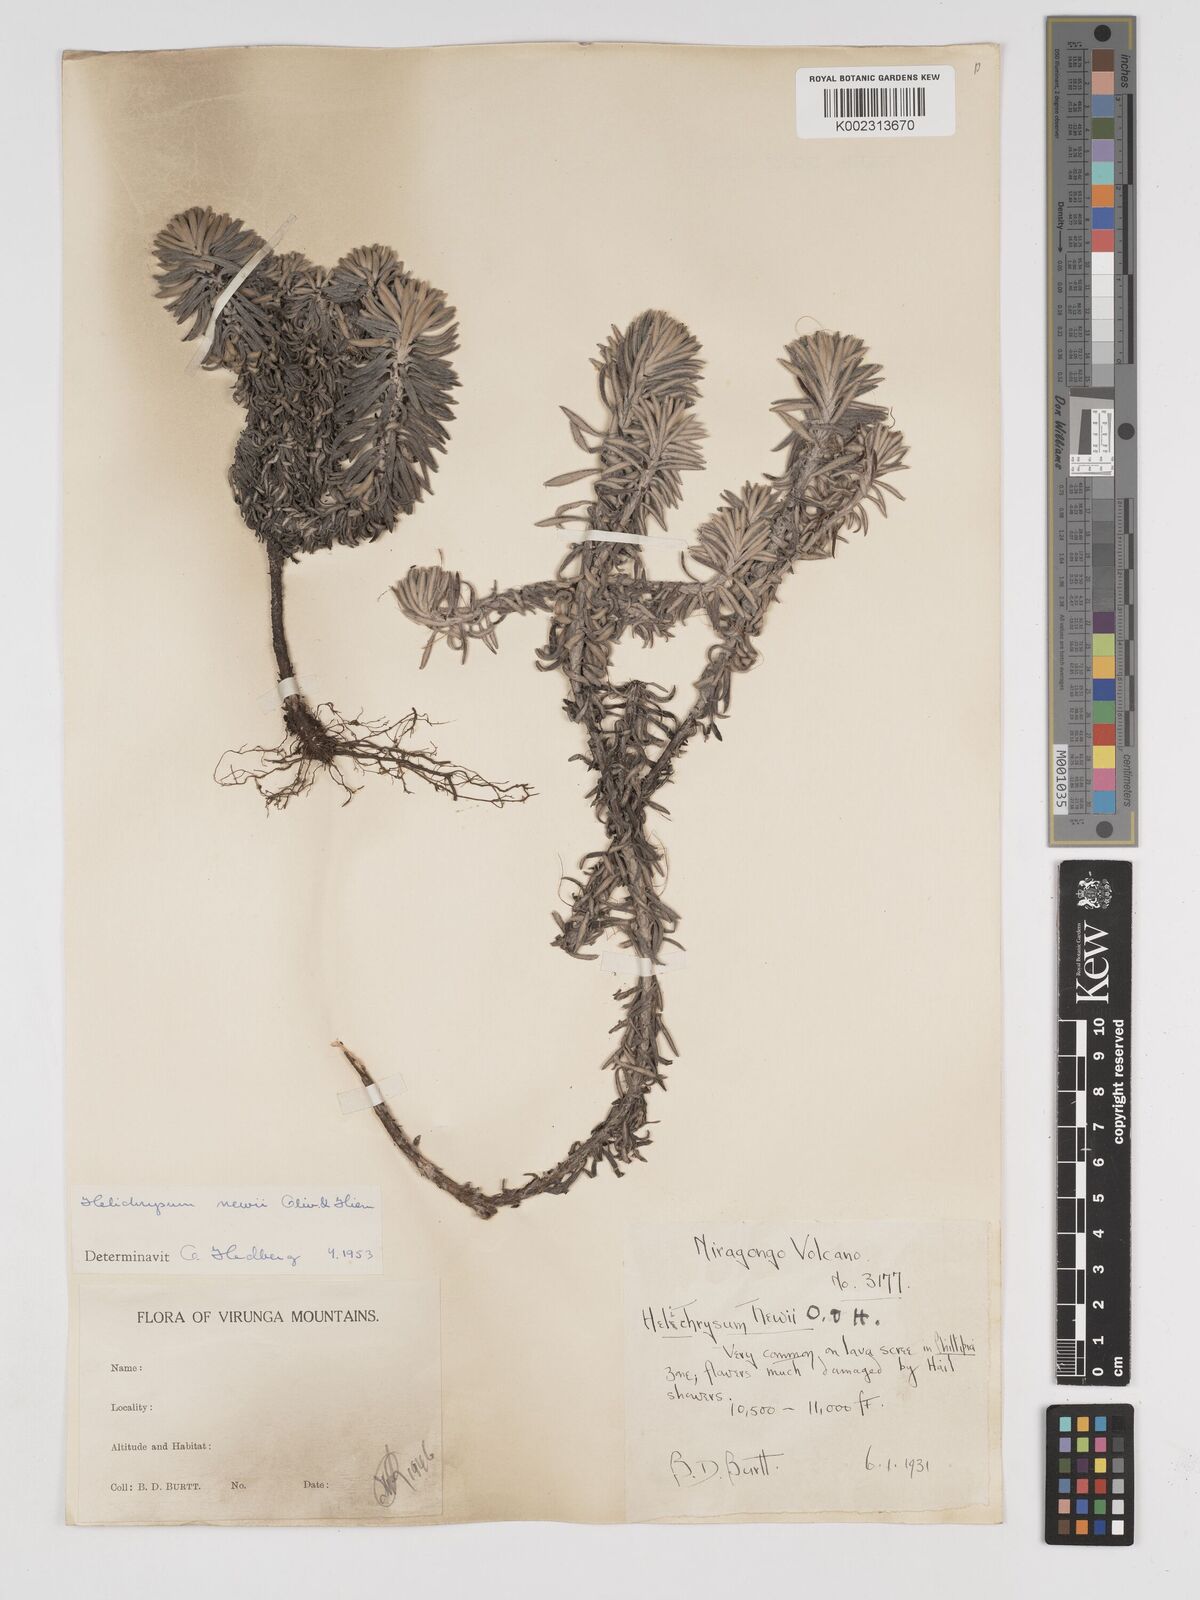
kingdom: Plantae
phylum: Tracheophyta
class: Magnoliopsida
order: Asterales
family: Asteraceae
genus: Helichrysum
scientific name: Helichrysum newii
